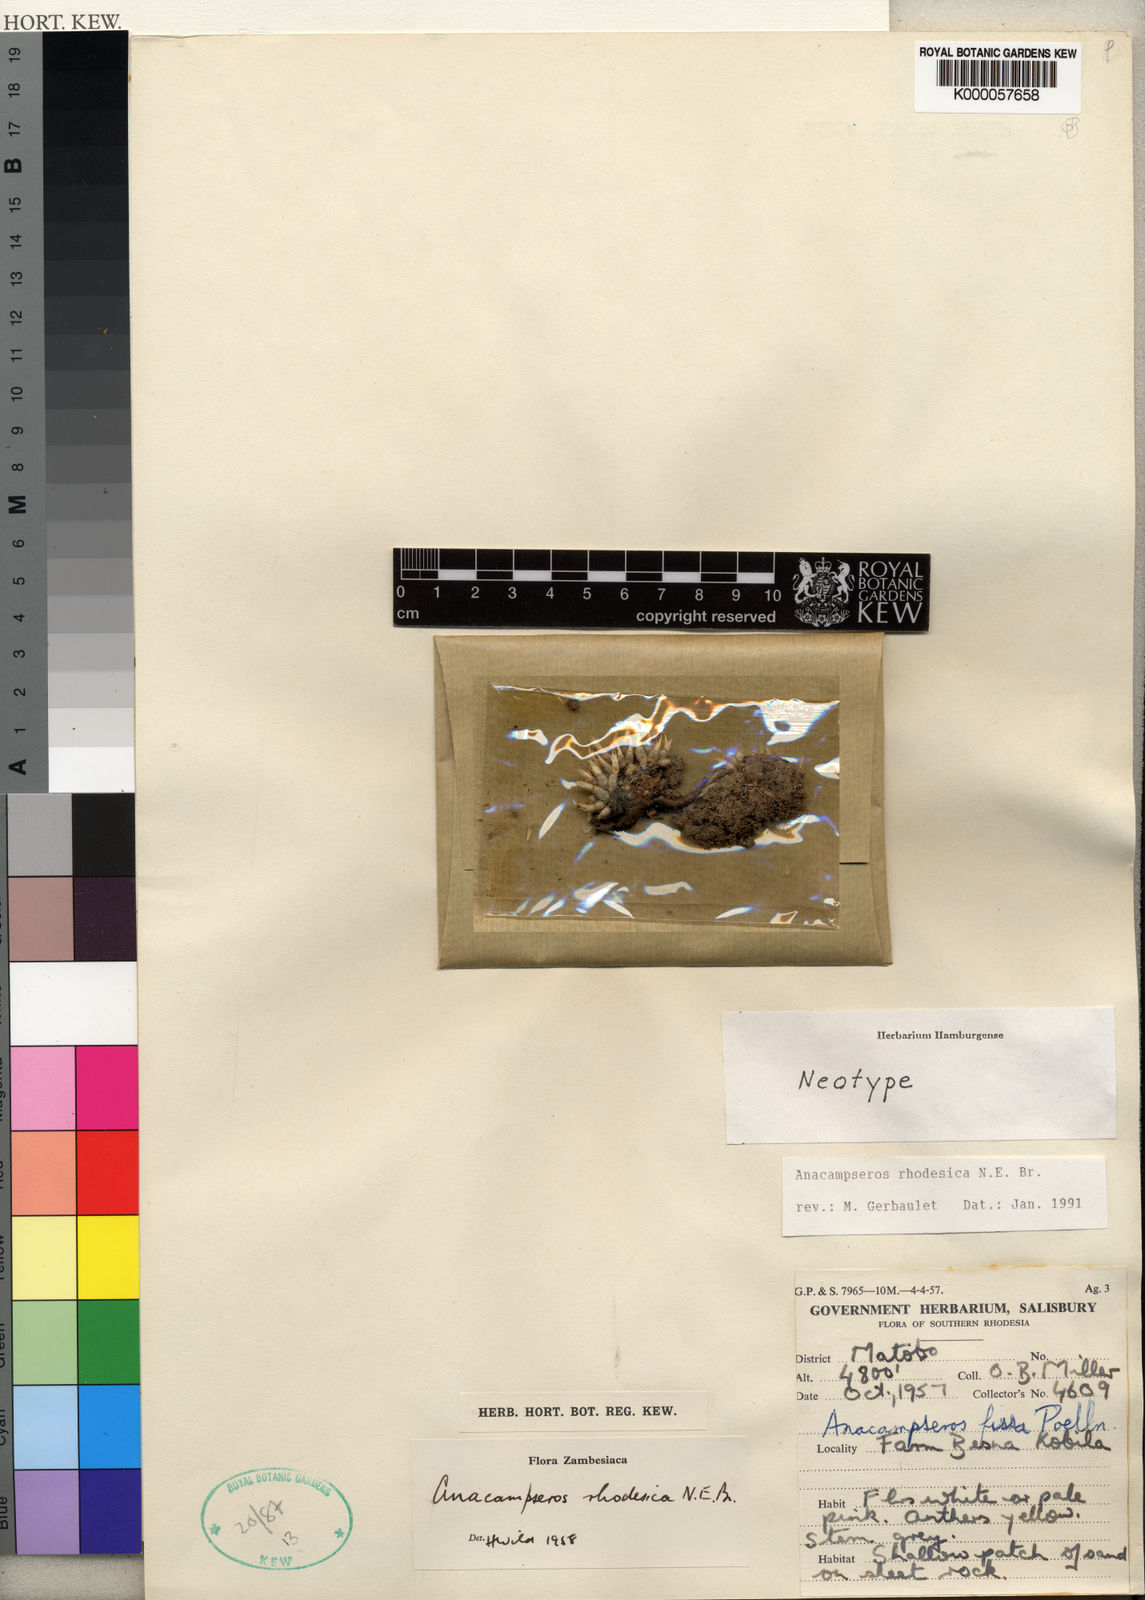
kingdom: Plantae
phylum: Tracheophyta
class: Magnoliopsida
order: Caryophyllales
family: Anacampserotaceae
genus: Anacampseros
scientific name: Anacampseros lanceolata
